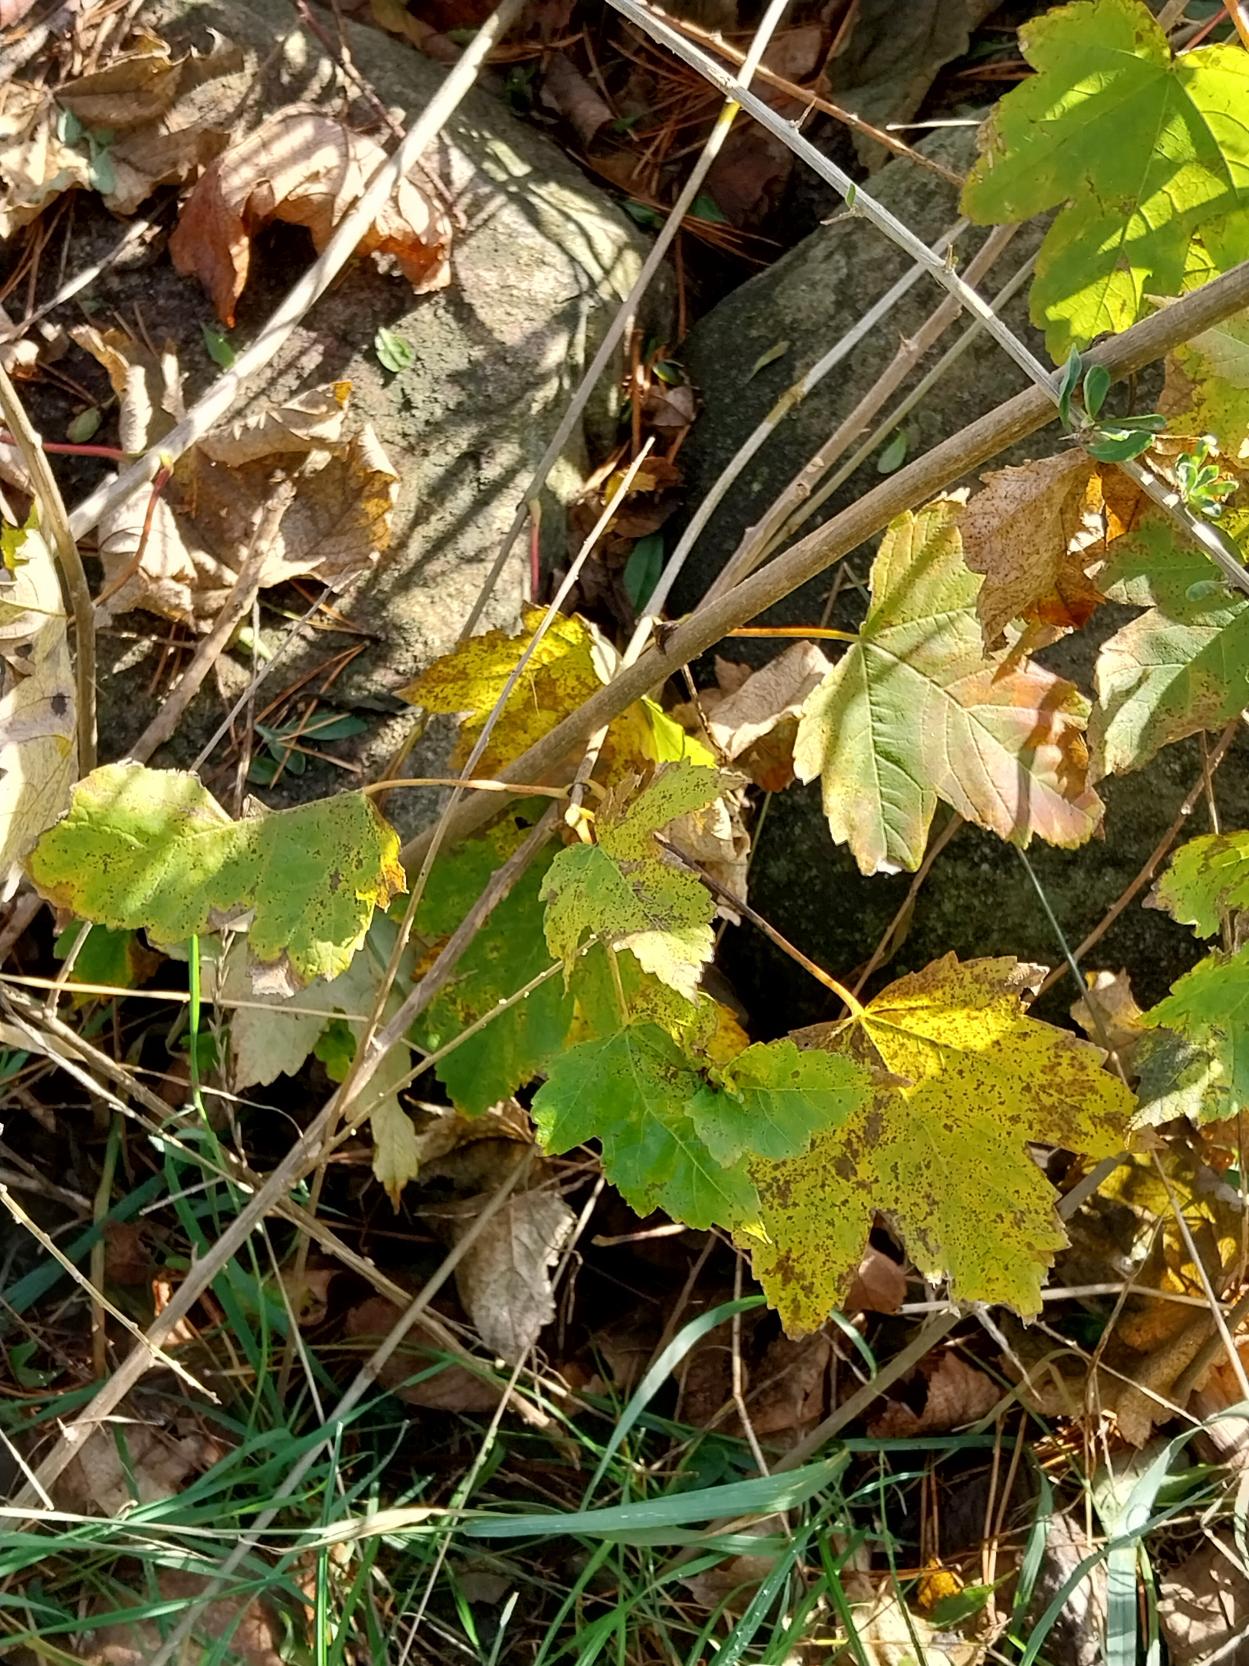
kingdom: Plantae
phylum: Tracheophyta
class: Magnoliopsida
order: Sapindales
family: Sapindaceae
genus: Acer
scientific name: Acer pseudoplatanus
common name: Ahorn
